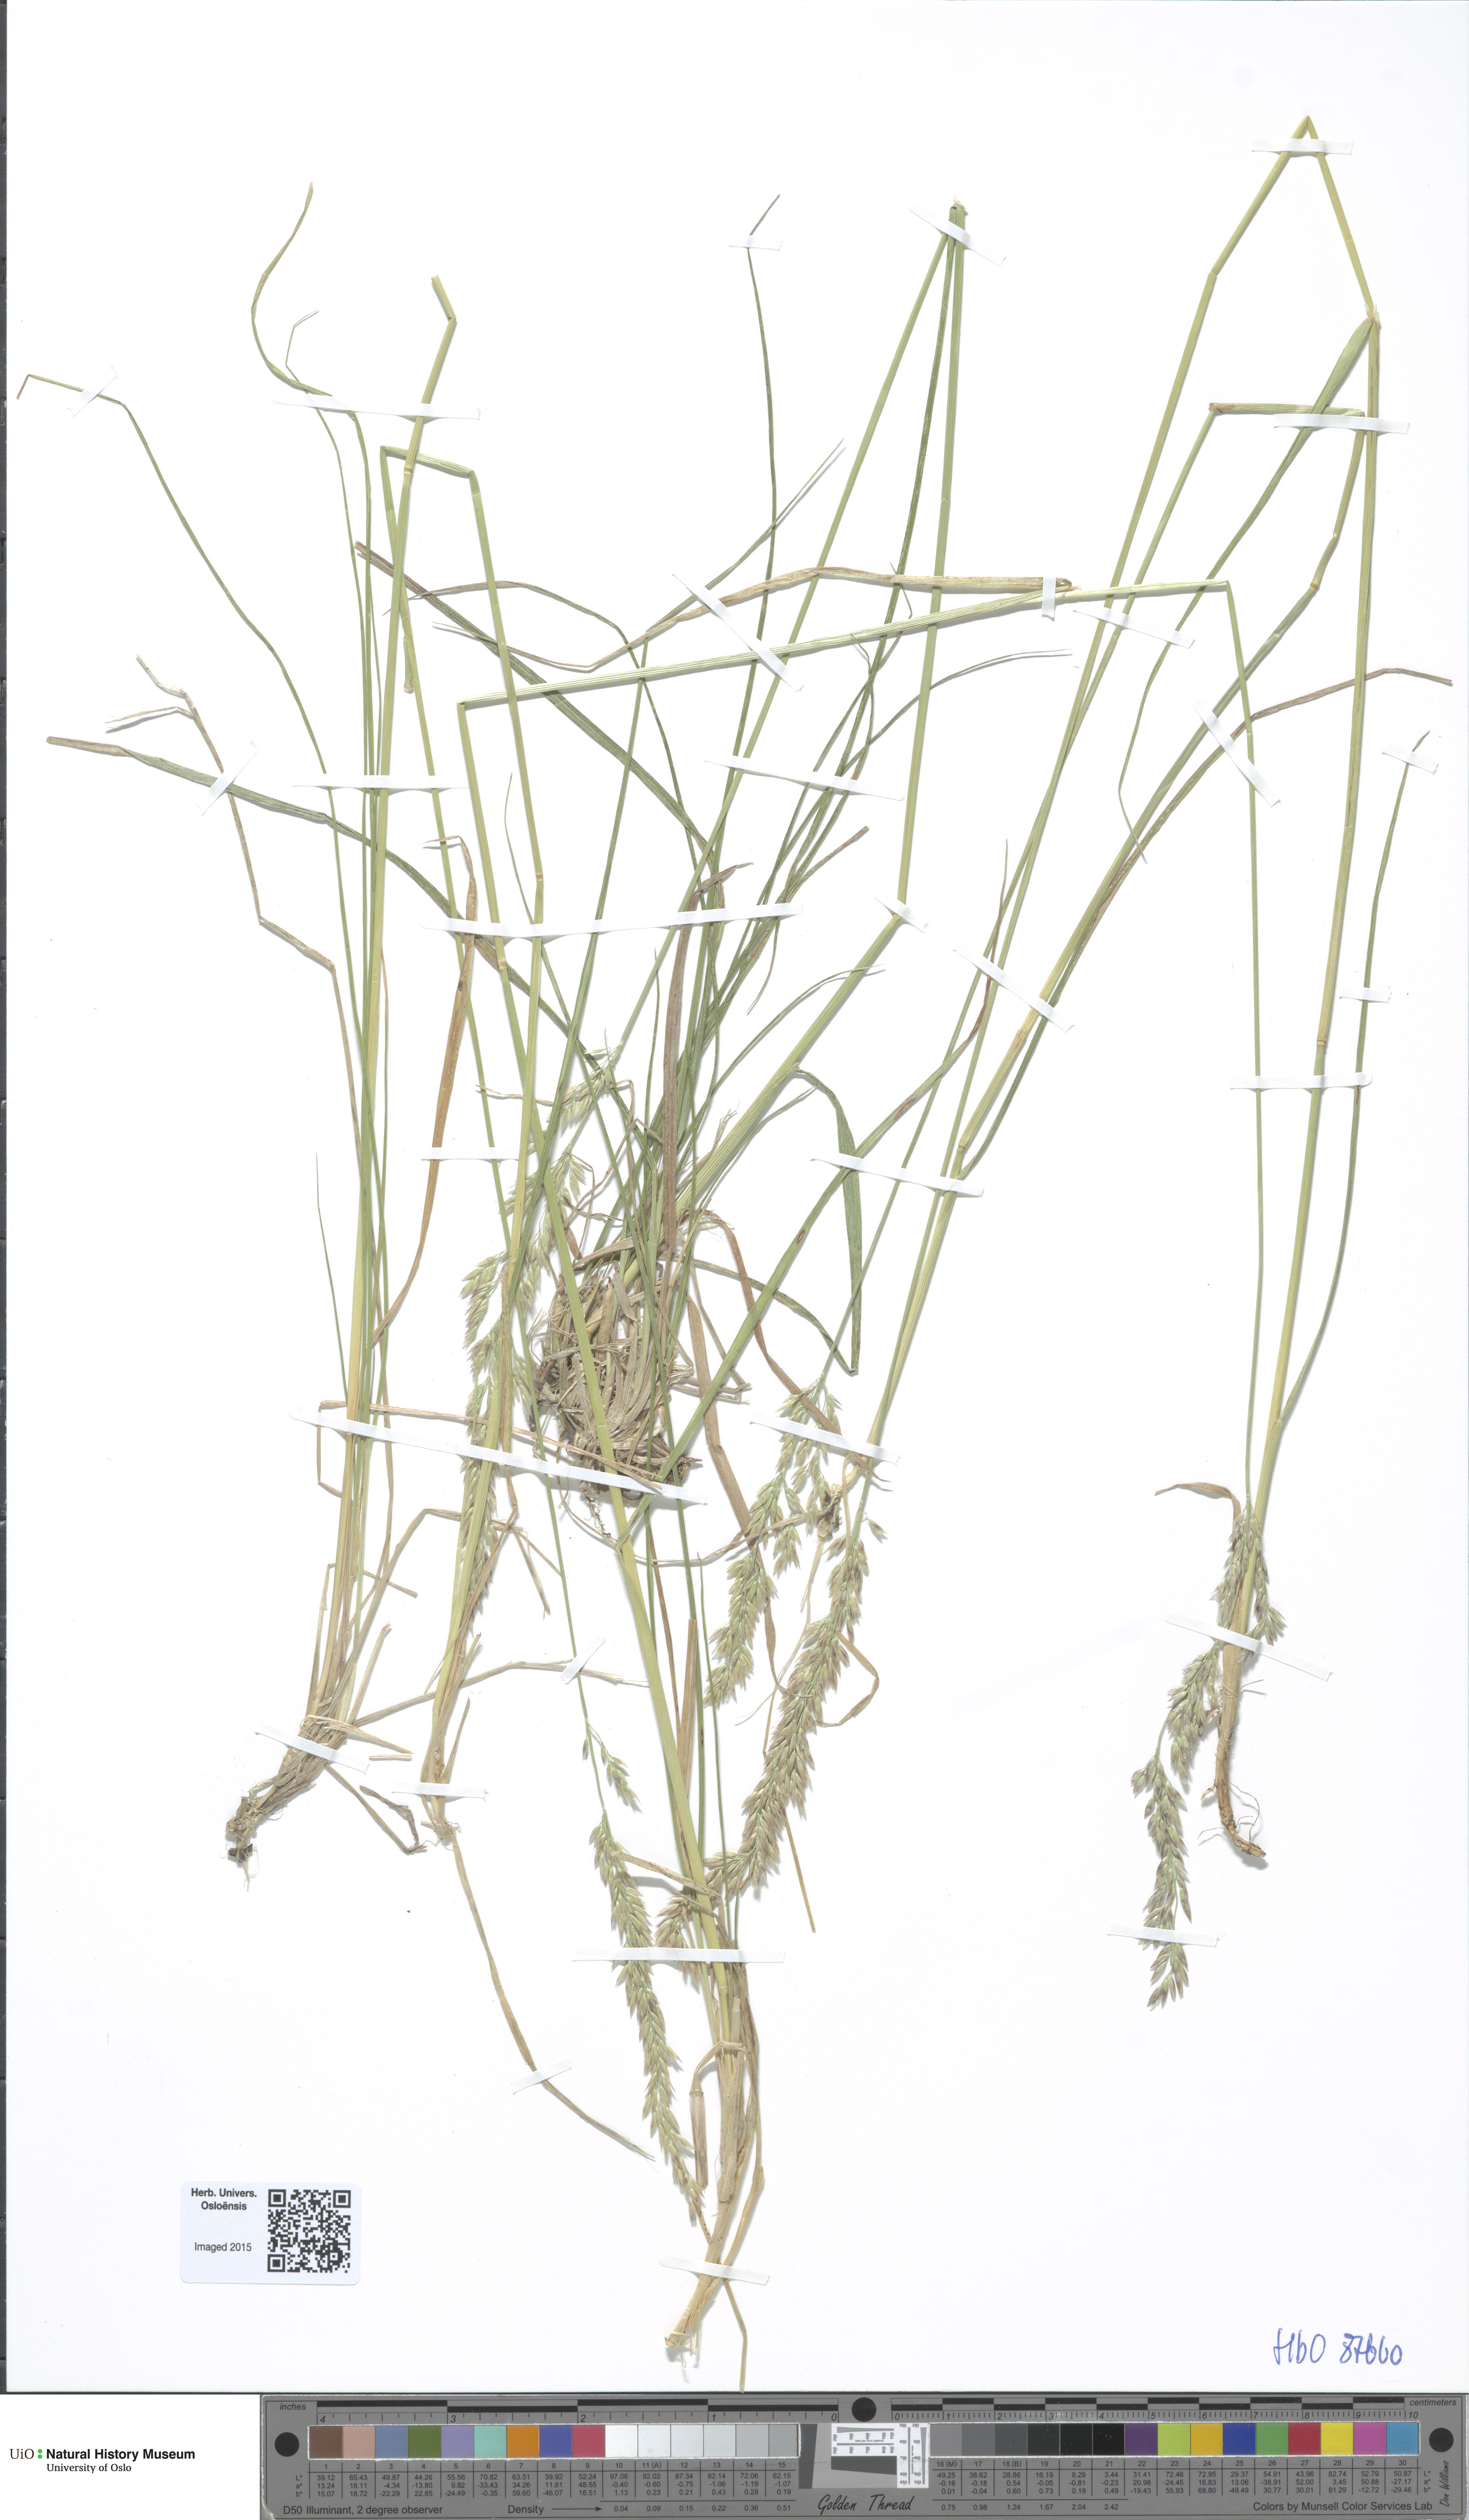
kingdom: Plantae
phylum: Tracheophyta
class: Liliopsida
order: Poales
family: Poaceae
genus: Calamagrostis
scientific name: Calamagrostis lapponica
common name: Lapland reedgrass
